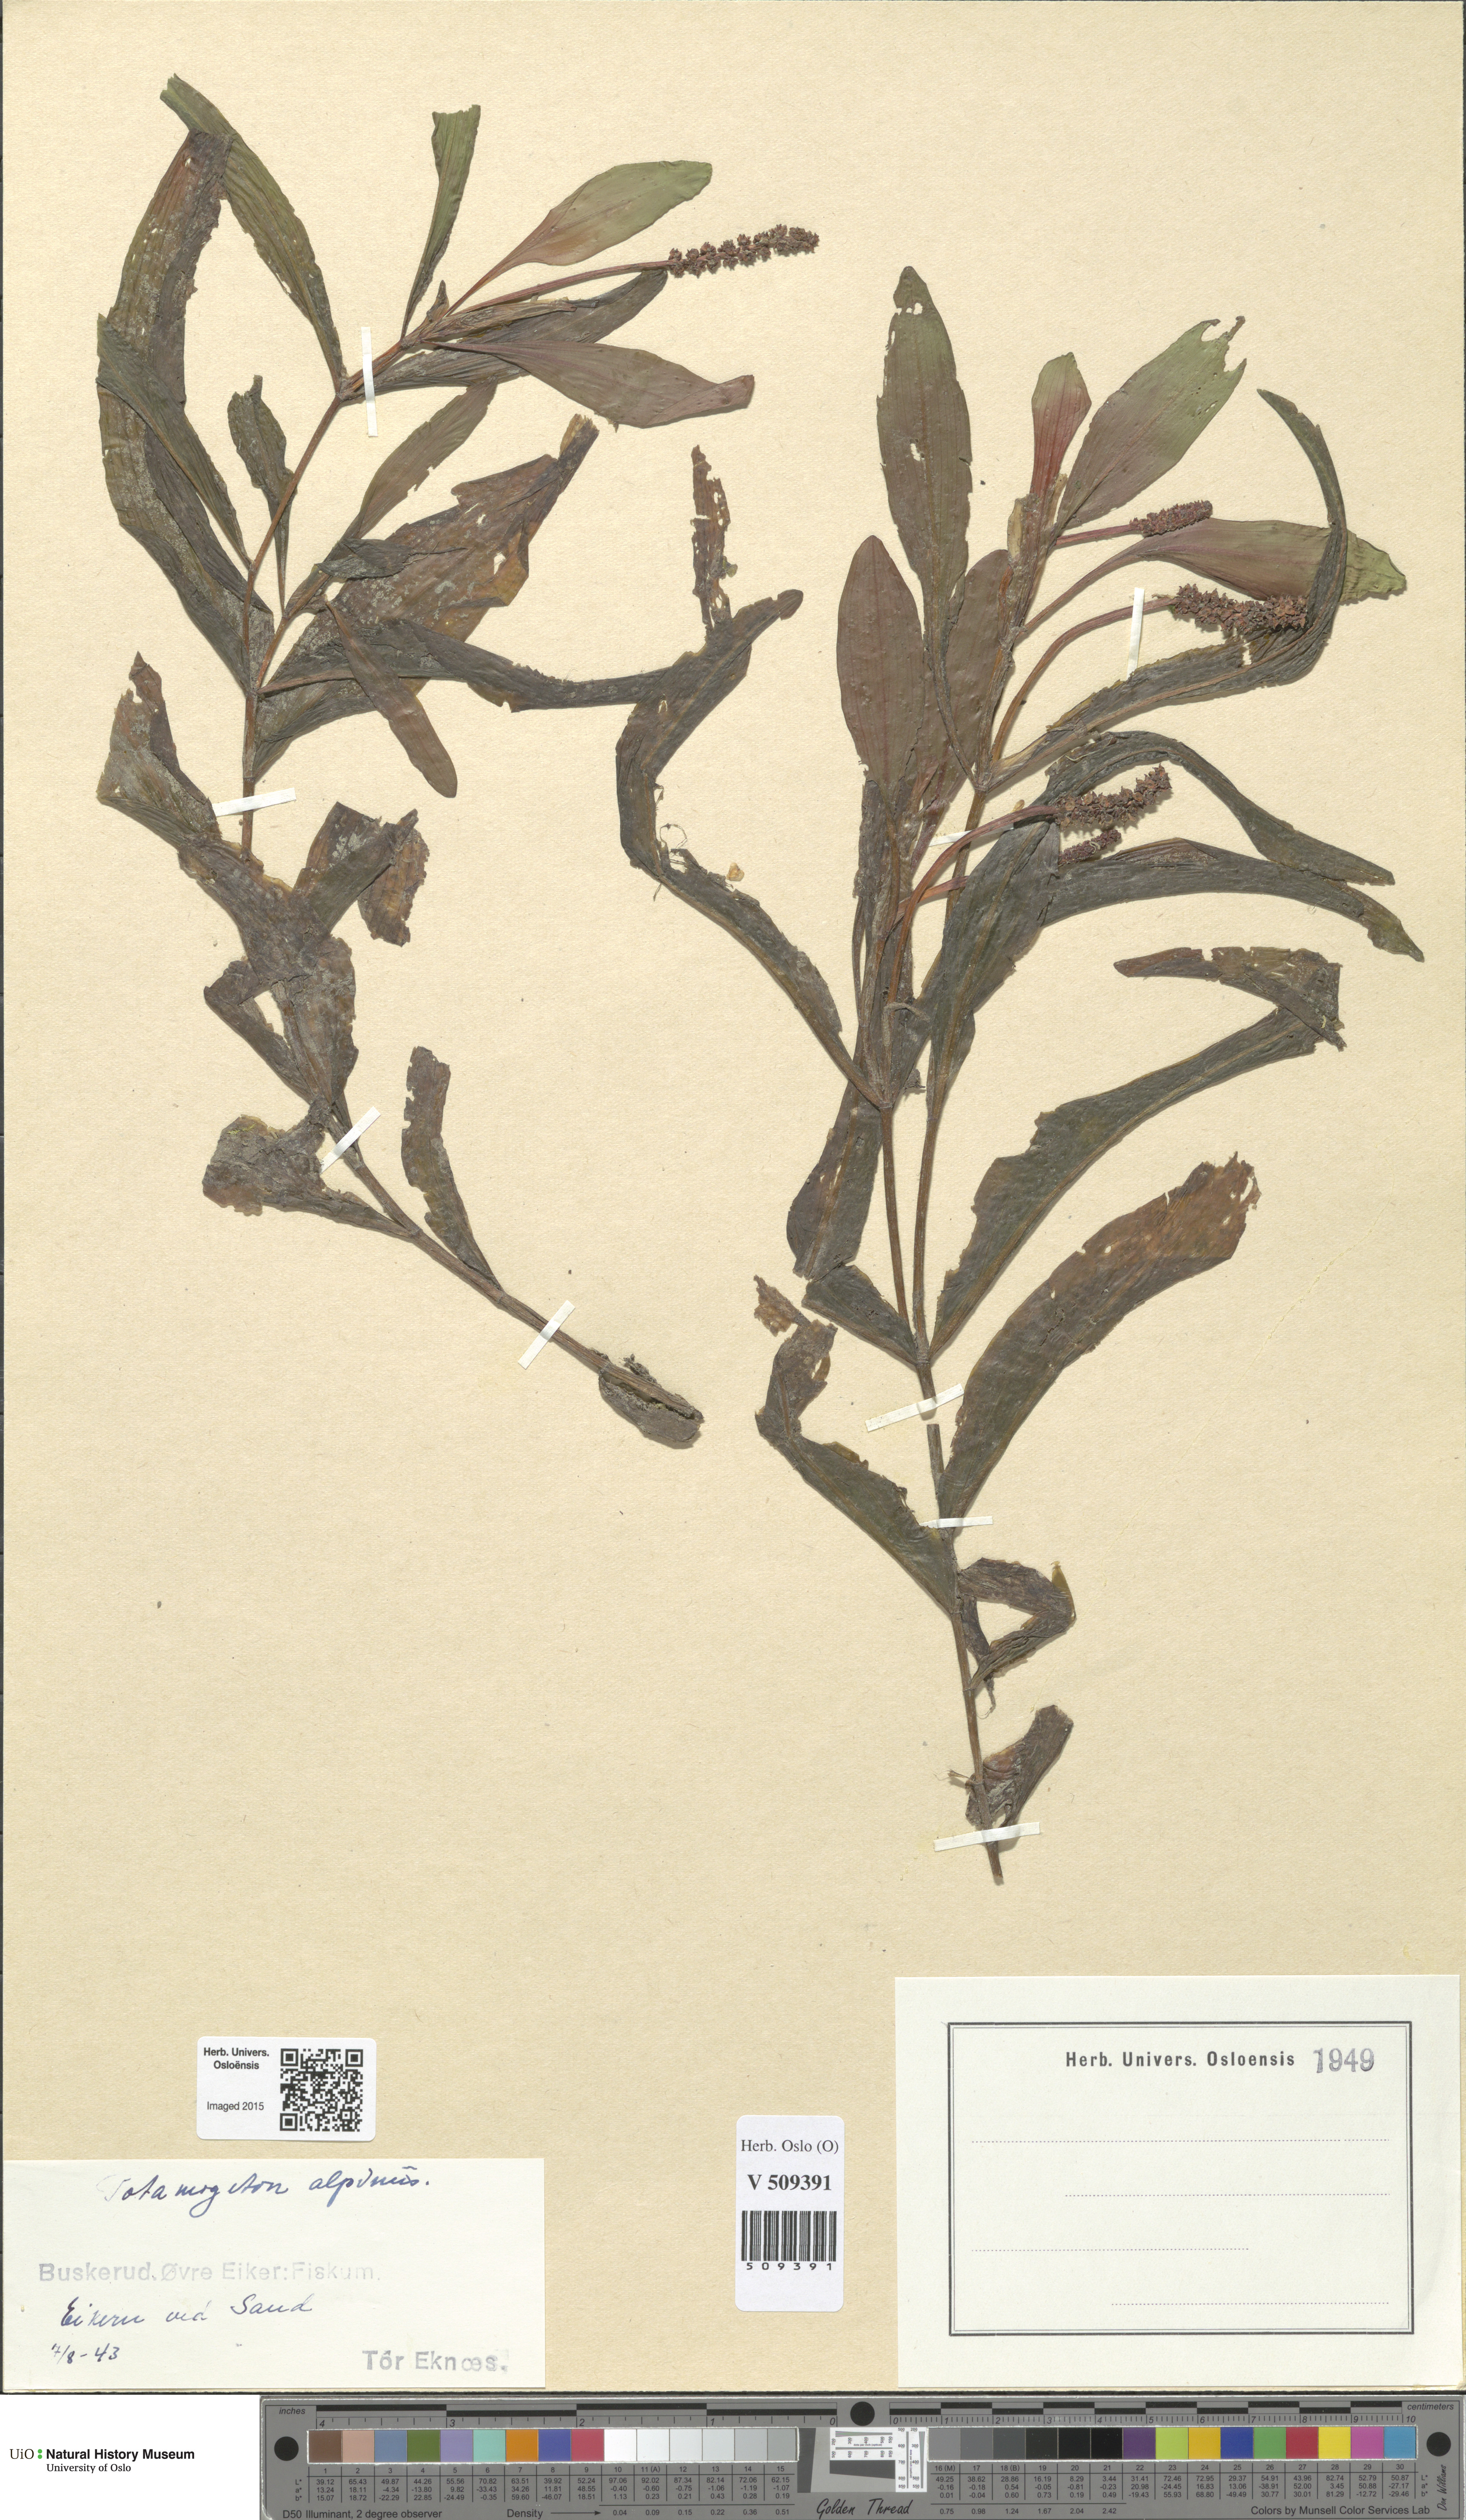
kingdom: Plantae
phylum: Tracheophyta
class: Liliopsida
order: Alismatales
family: Potamogetonaceae
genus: Potamogeton
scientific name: Potamogeton alpinus
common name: Red pondweed
